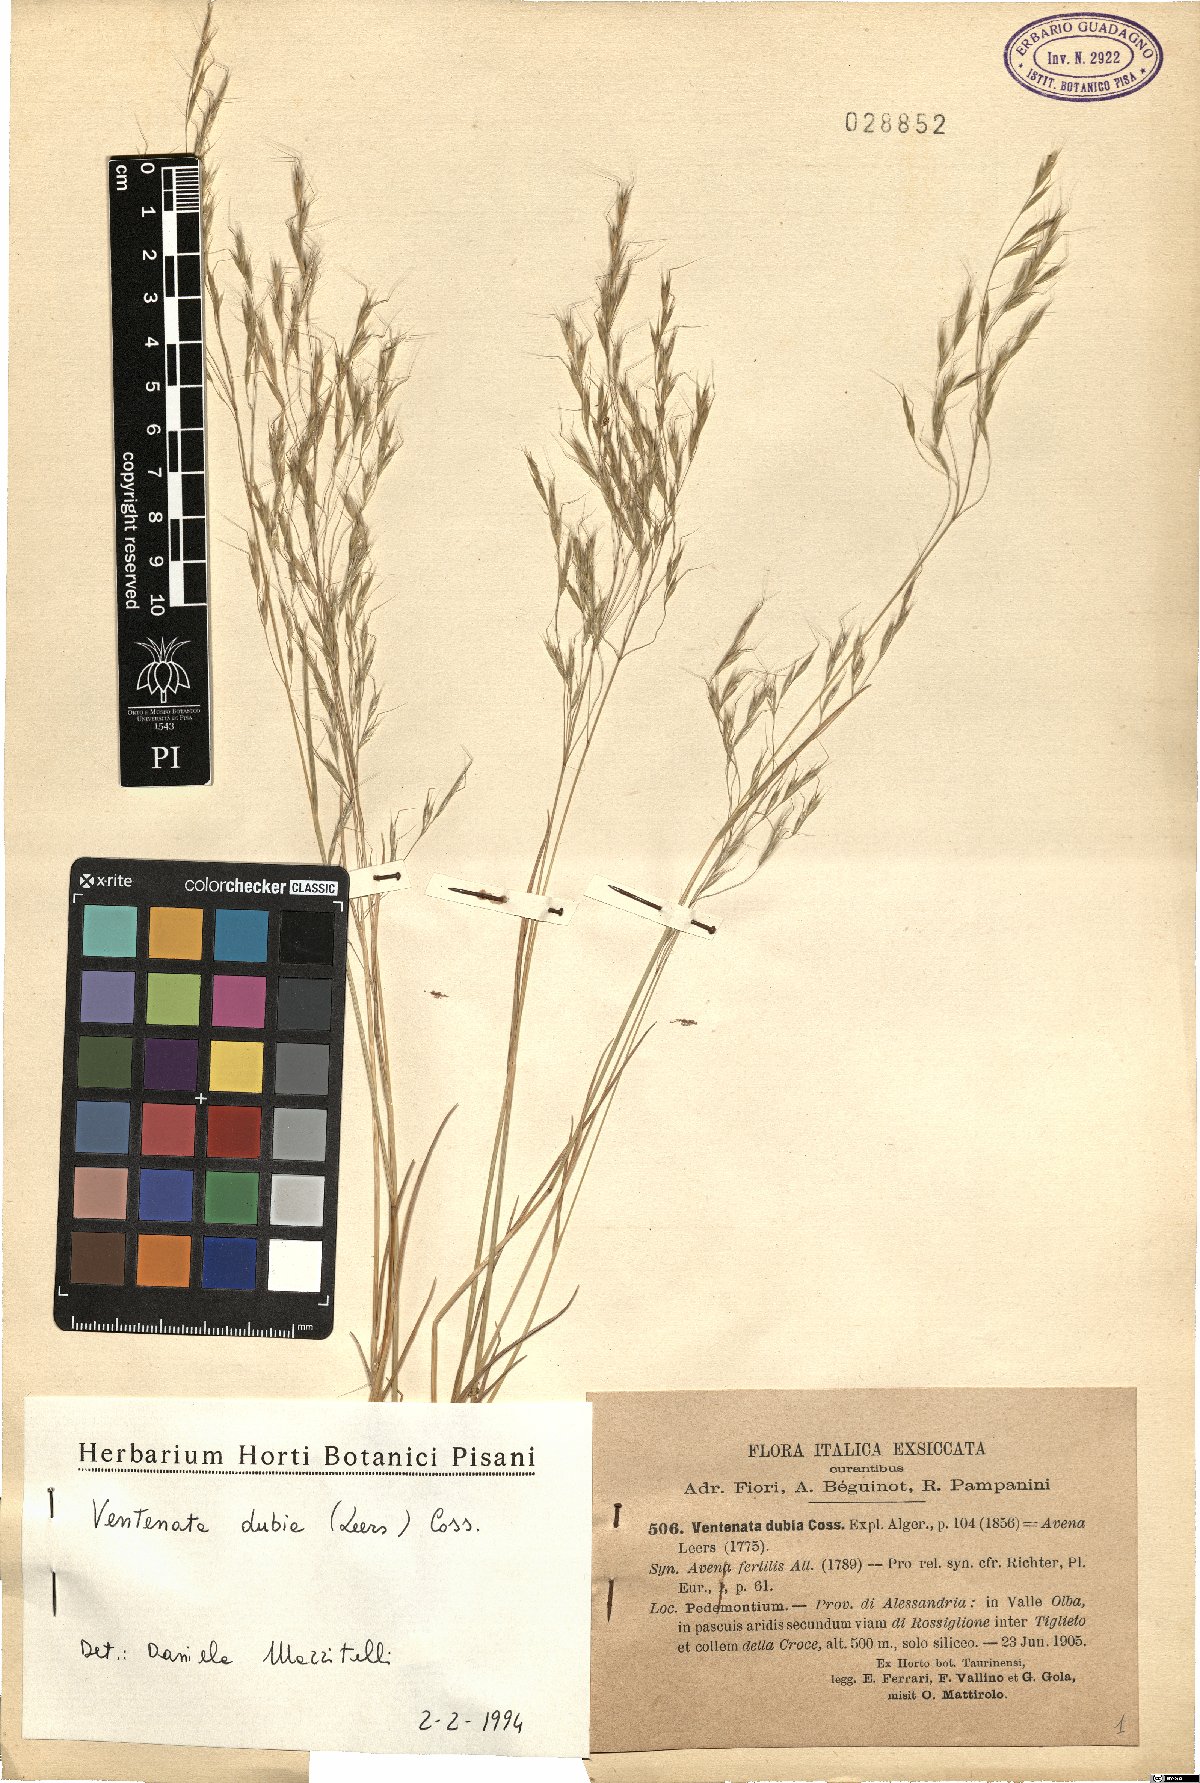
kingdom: Plantae
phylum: Tracheophyta
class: Liliopsida
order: Poales
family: Poaceae
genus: Ventenata
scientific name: Ventenata dubia
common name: North africa grass
